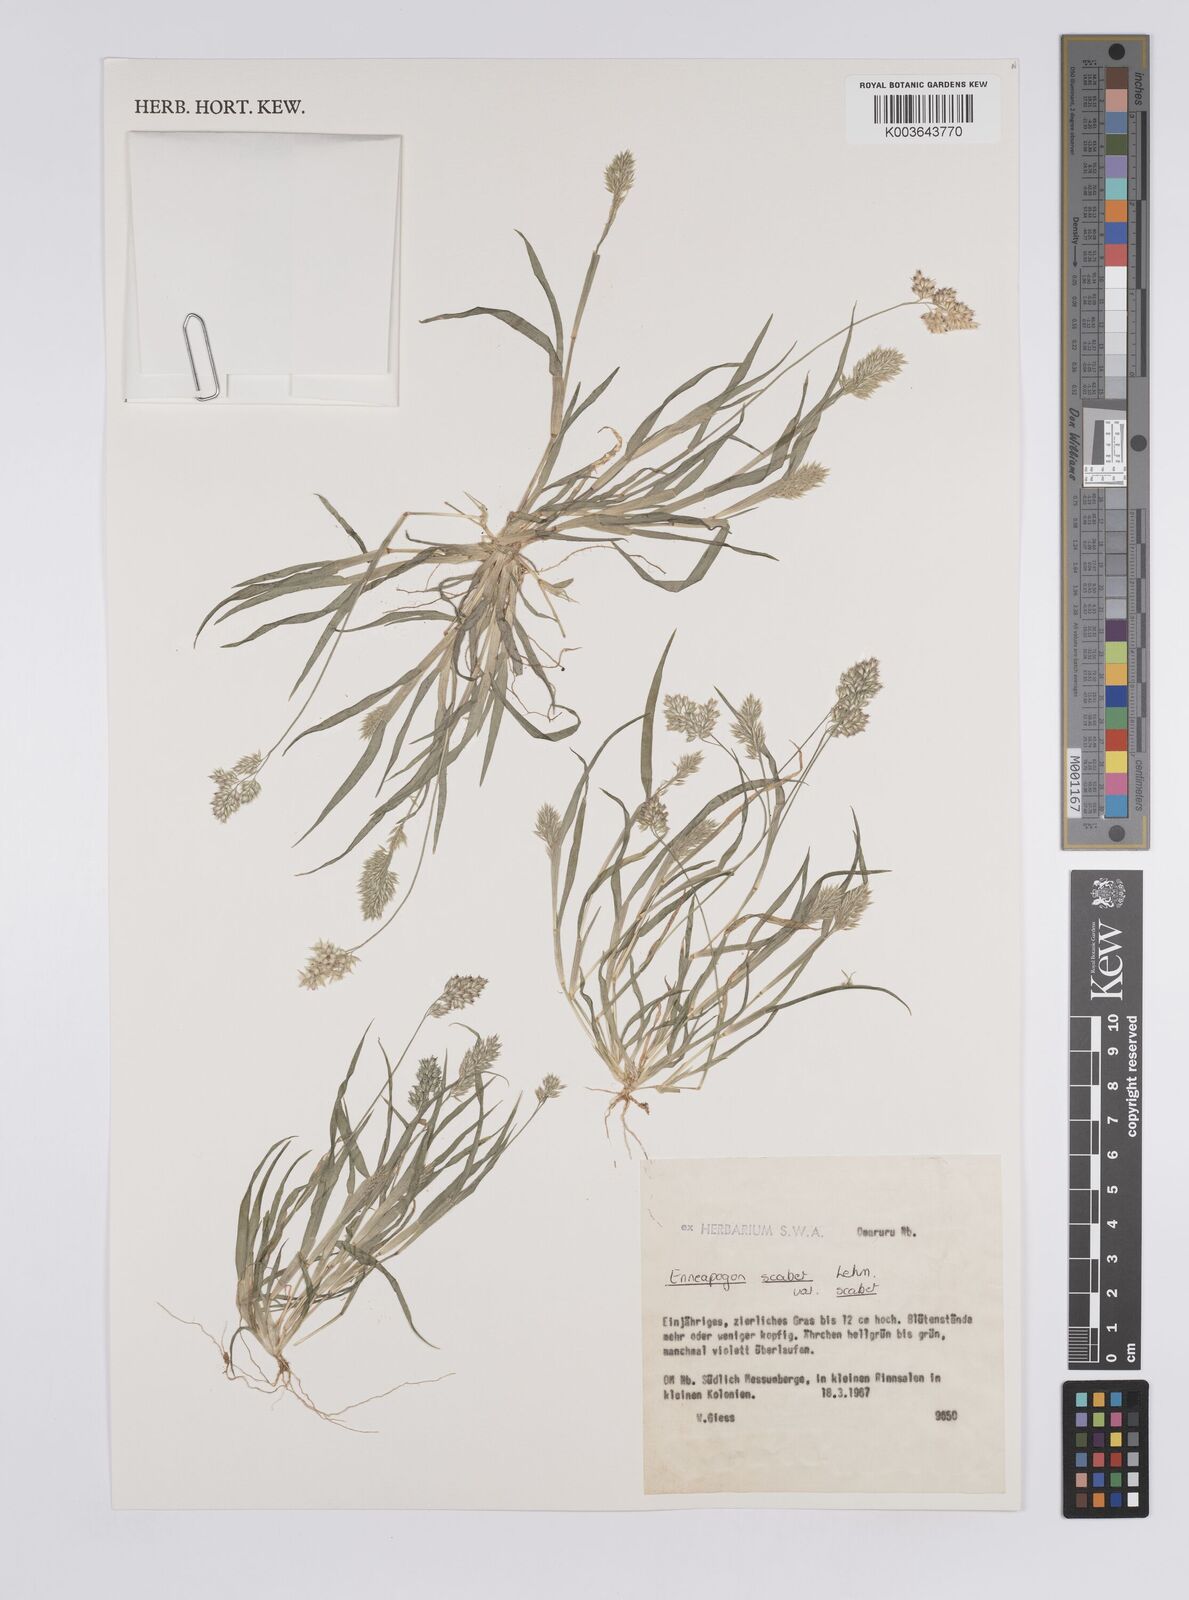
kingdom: Plantae
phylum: Tracheophyta
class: Liliopsida
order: Poales
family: Poaceae
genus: Enneapogon
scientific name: Enneapogon scaber
